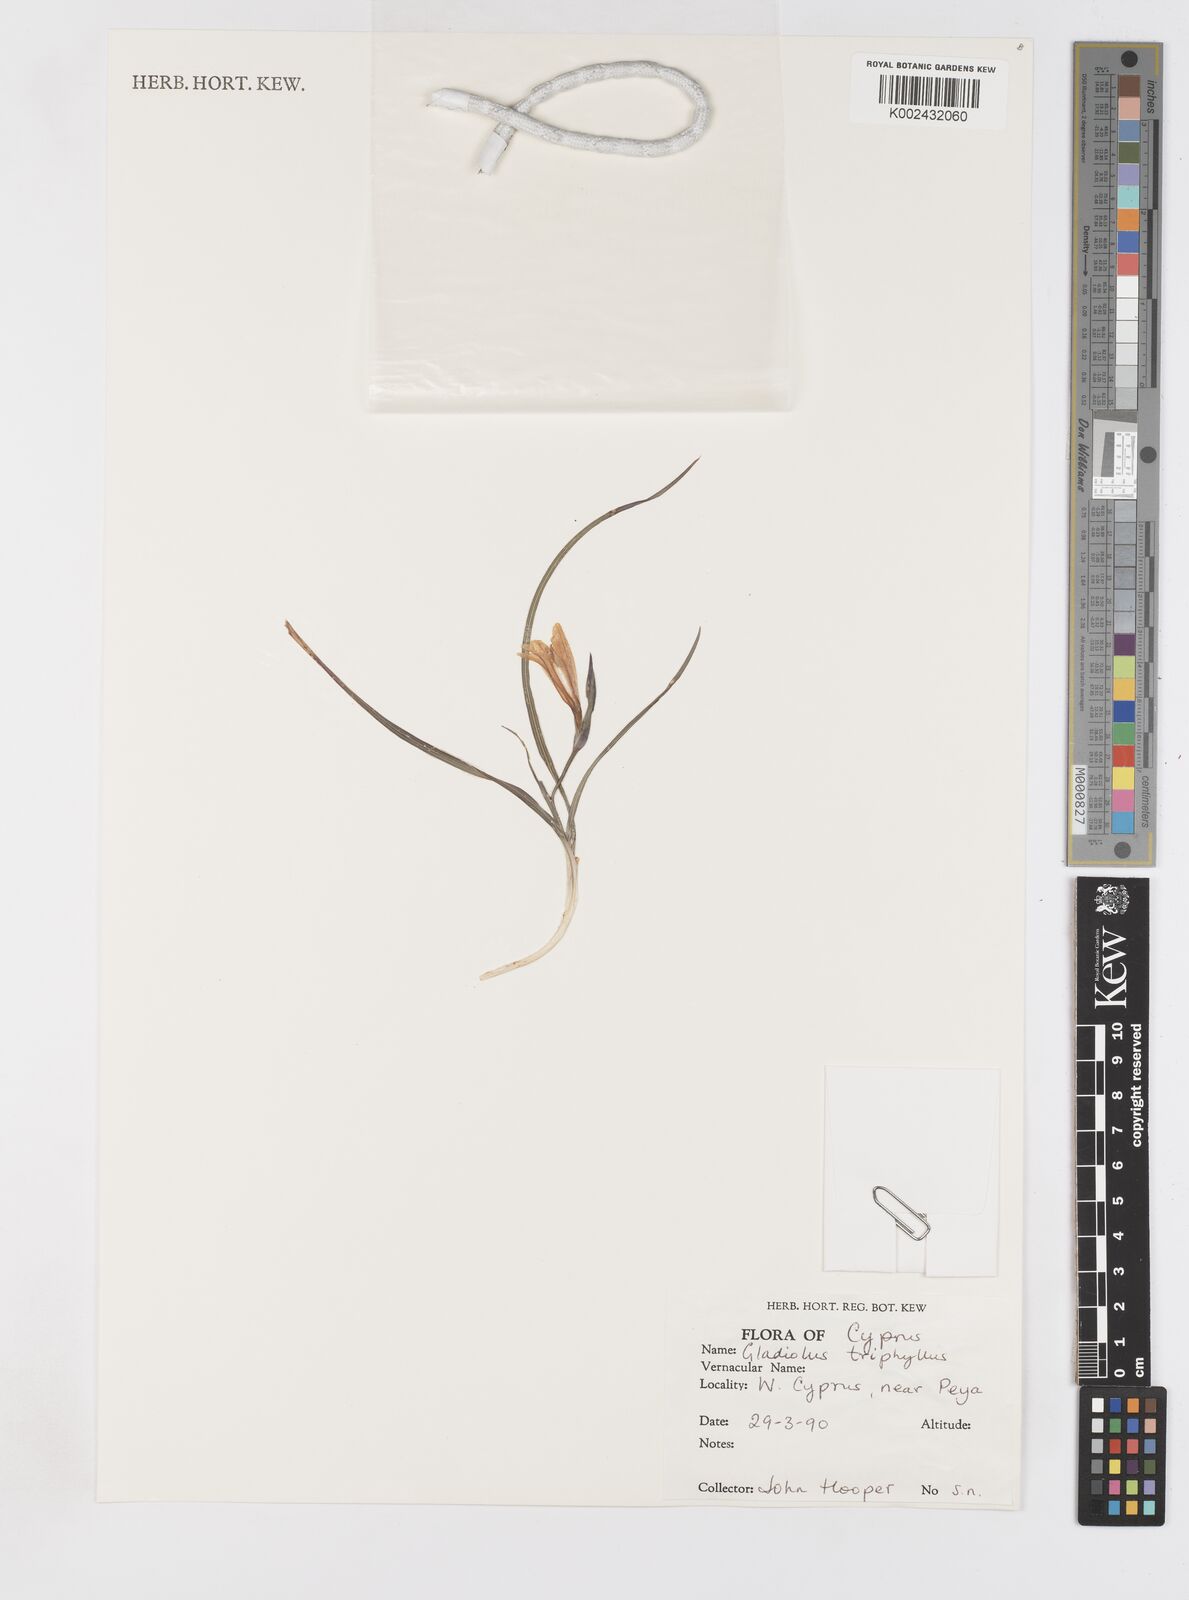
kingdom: Plantae
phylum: Tracheophyta
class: Liliopsida
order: Asparagales
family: Iridaceae
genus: Gladiolus
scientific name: Gladiolus triphyllus
